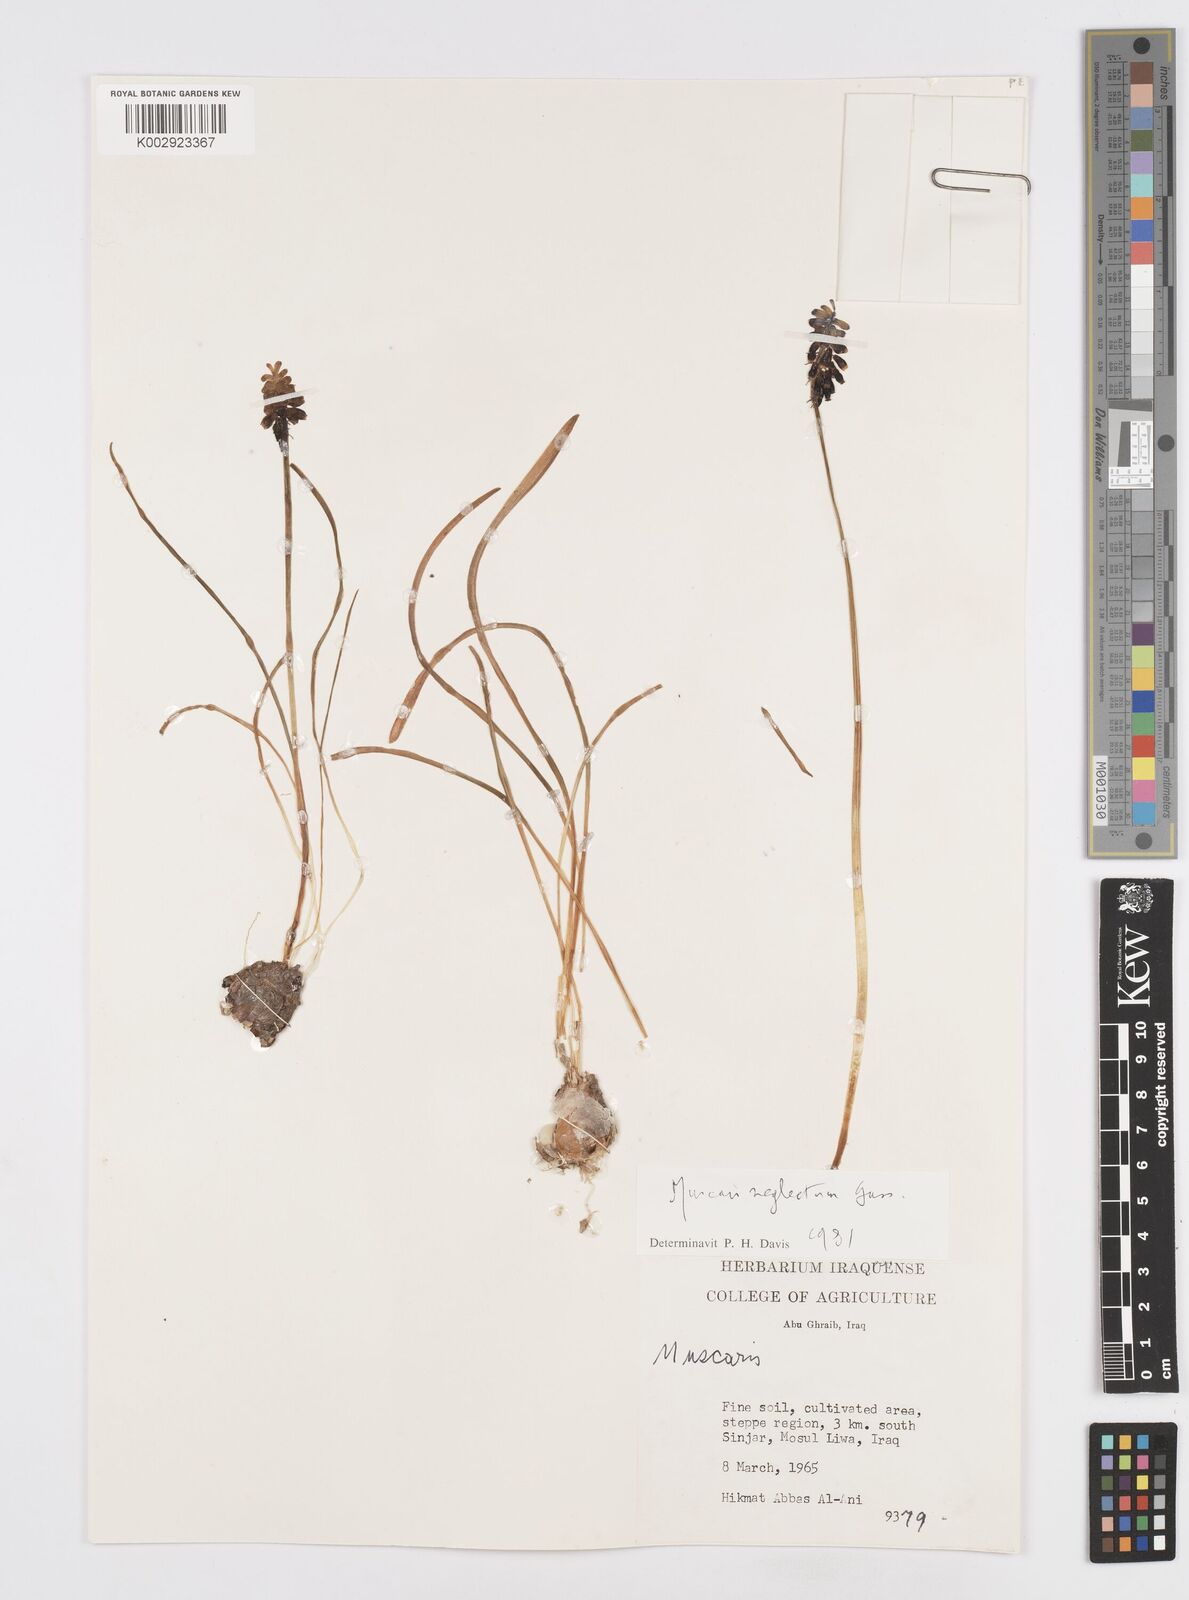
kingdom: Plantae
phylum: Tracheophyta
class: Liliopsida
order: Asparagales
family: Asparagaceae
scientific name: Asparagaceae
